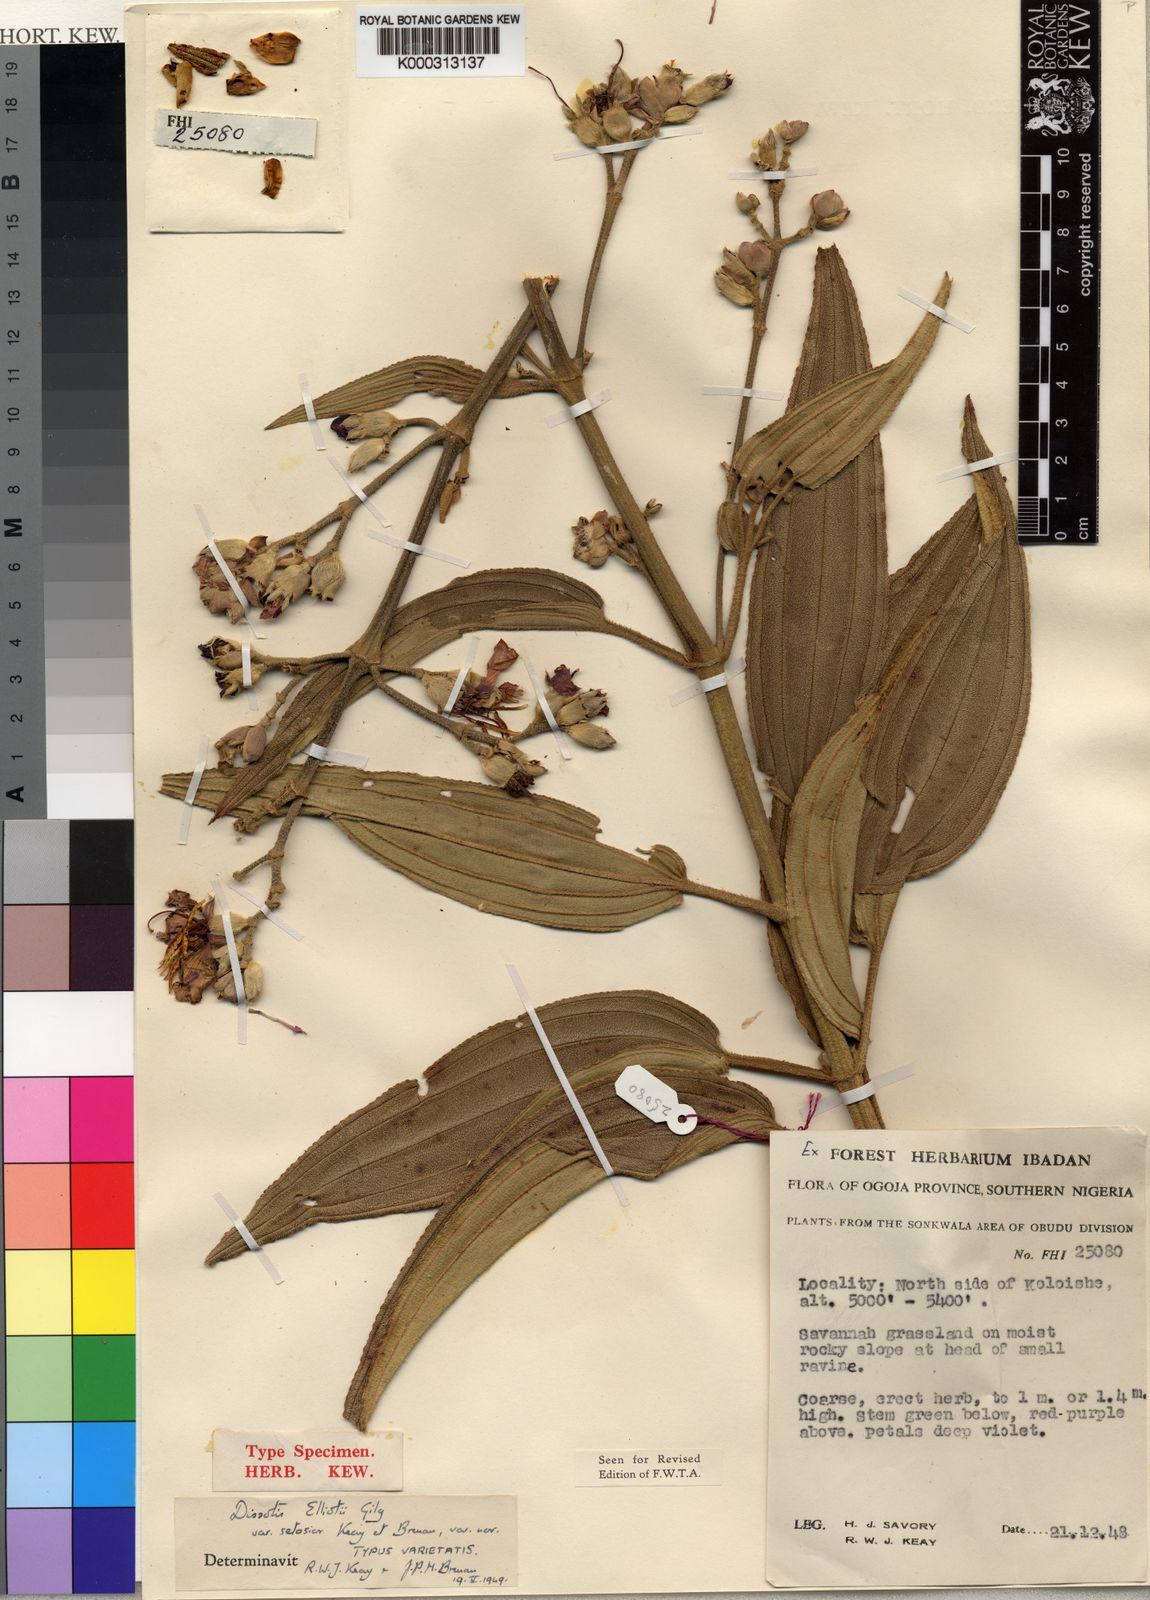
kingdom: Plantae
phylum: Tracheophyta
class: Magnoliopsida
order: Myrtales
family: Melastomataceae
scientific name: Melastomataceae
